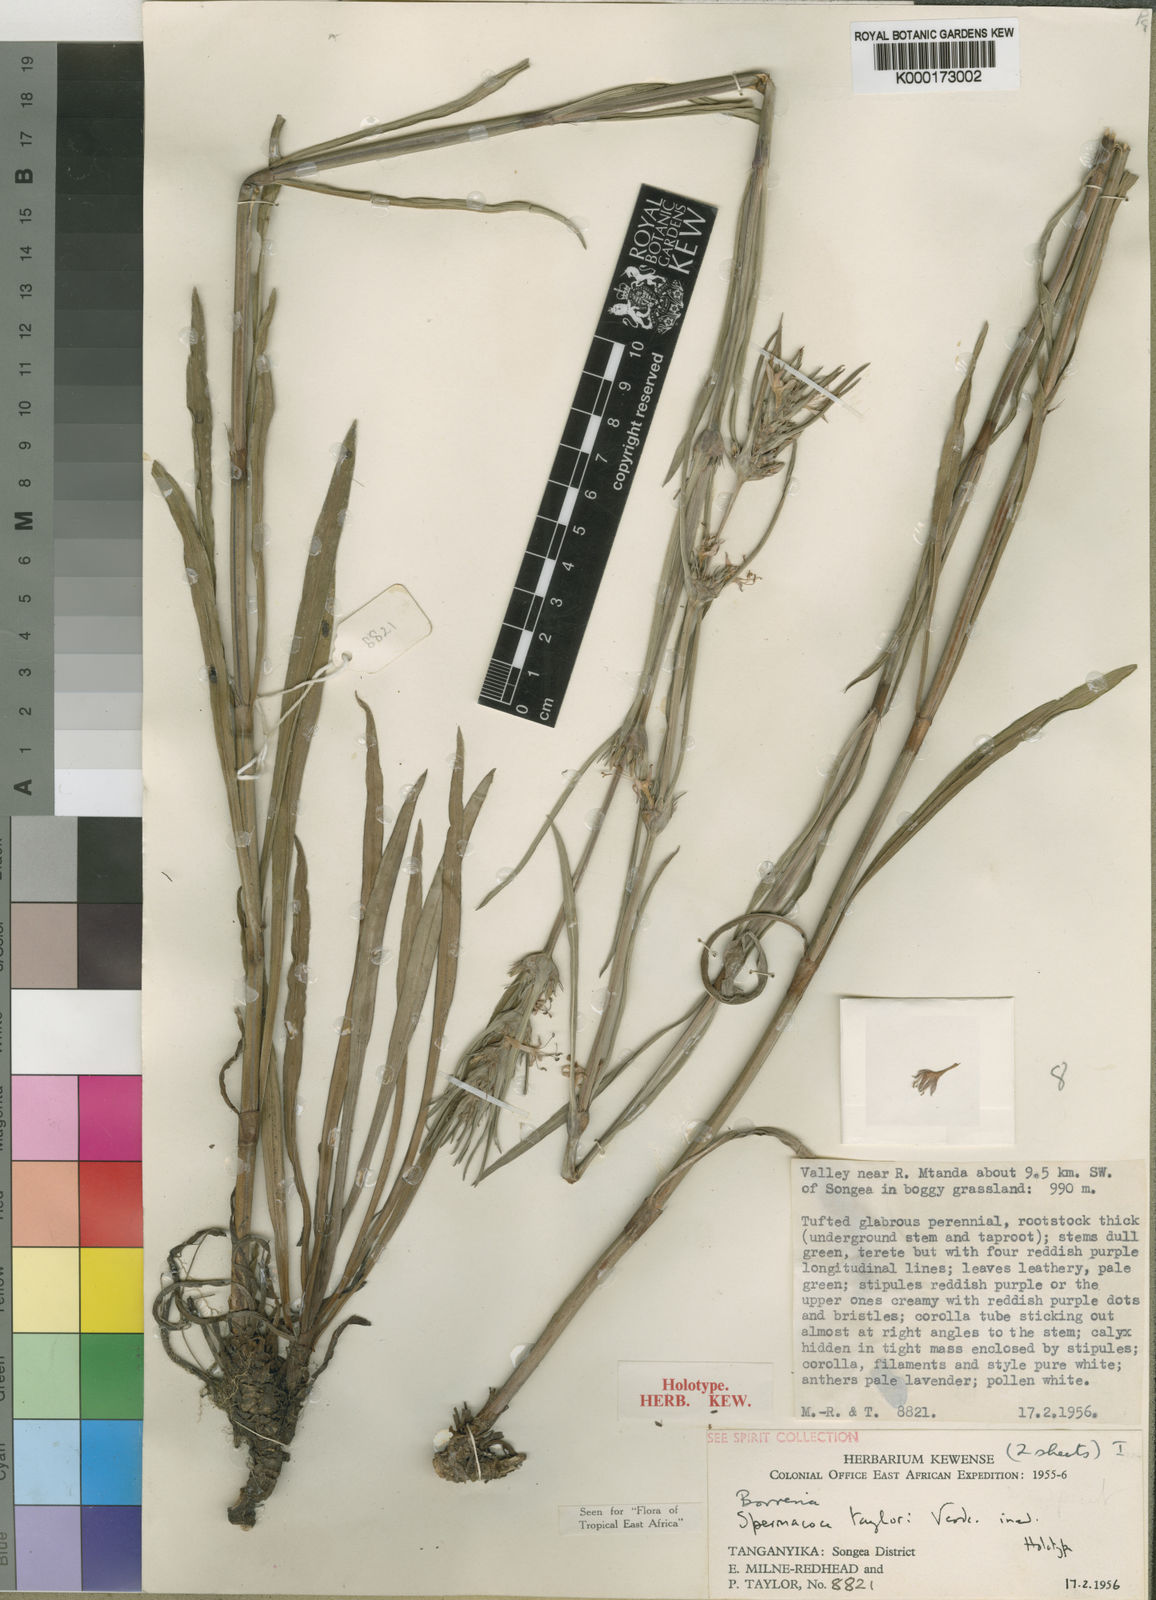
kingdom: Plantae
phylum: Tracheophyta
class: Magnoliopsida
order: Gentianales
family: Rubiaceae
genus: Spermacoce
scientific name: Spermacoce taylorii
